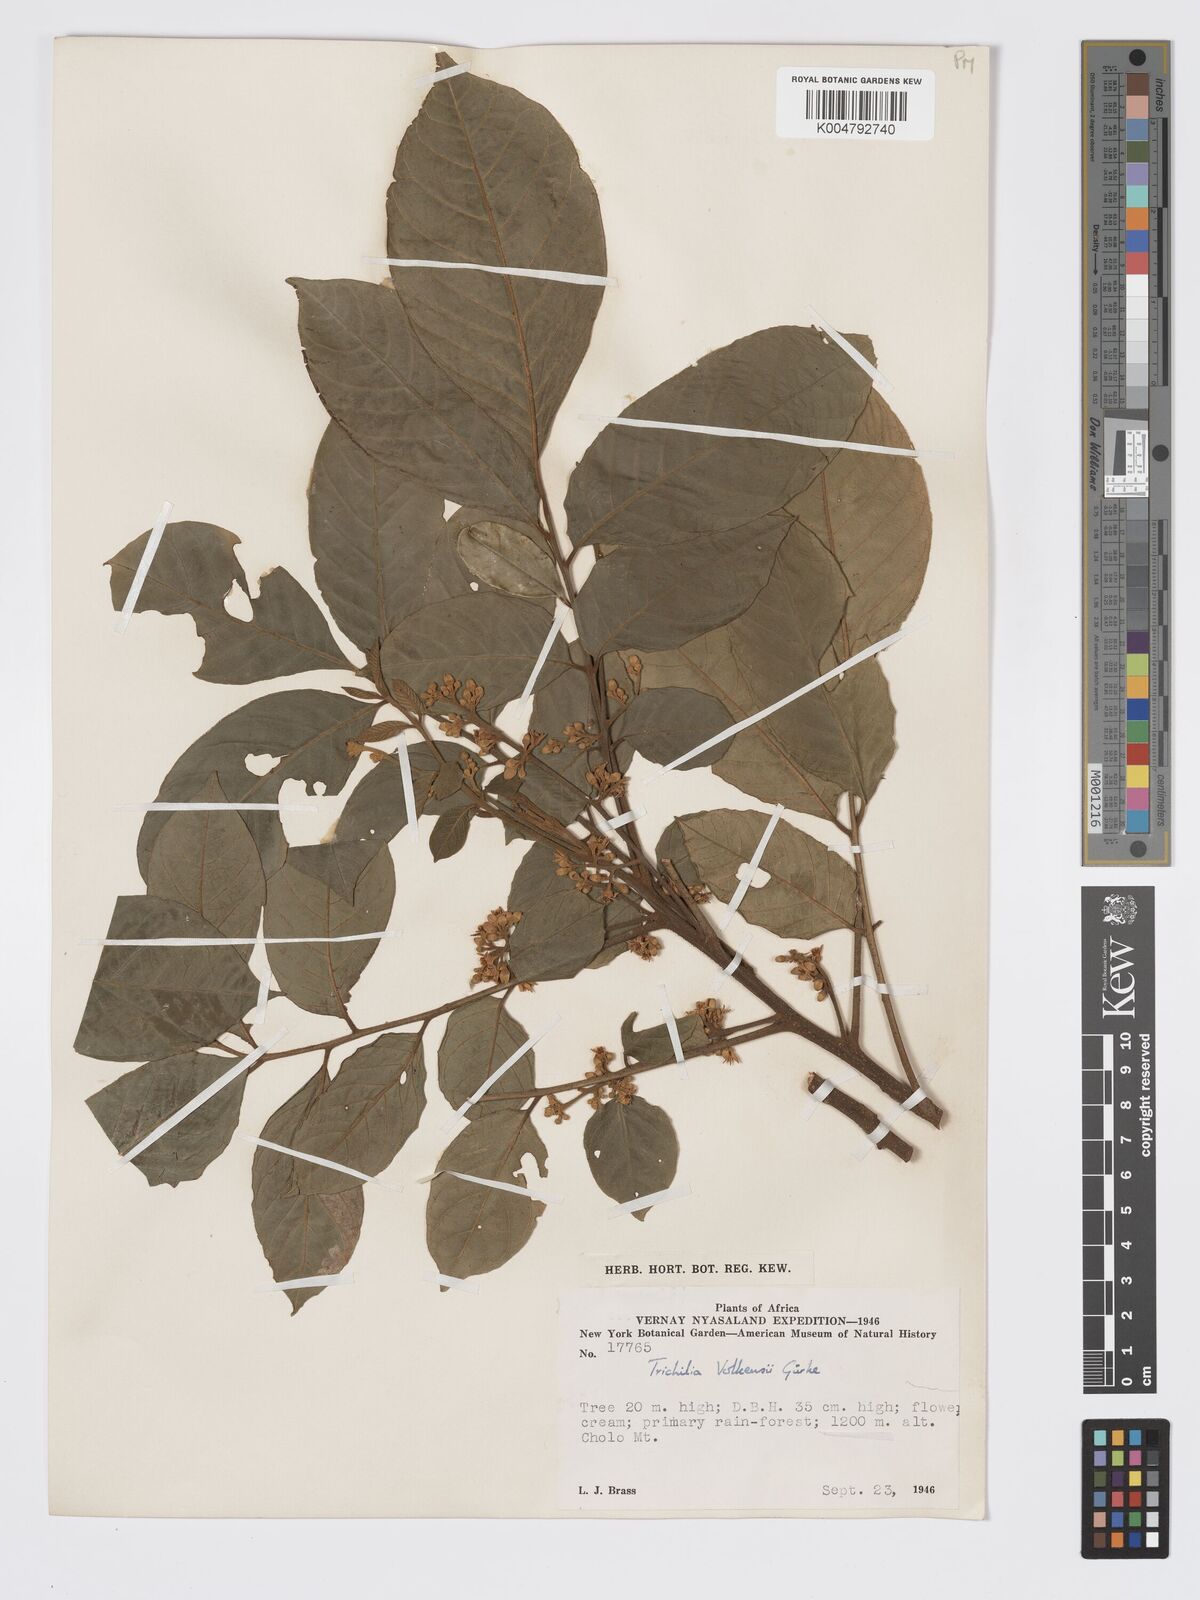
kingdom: Plantae
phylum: Tracheophyta
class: Magnoliopsida
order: Sapindales
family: Meliaceae
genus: Lepidotrichilia
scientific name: Lepidotrichilia volkensii
